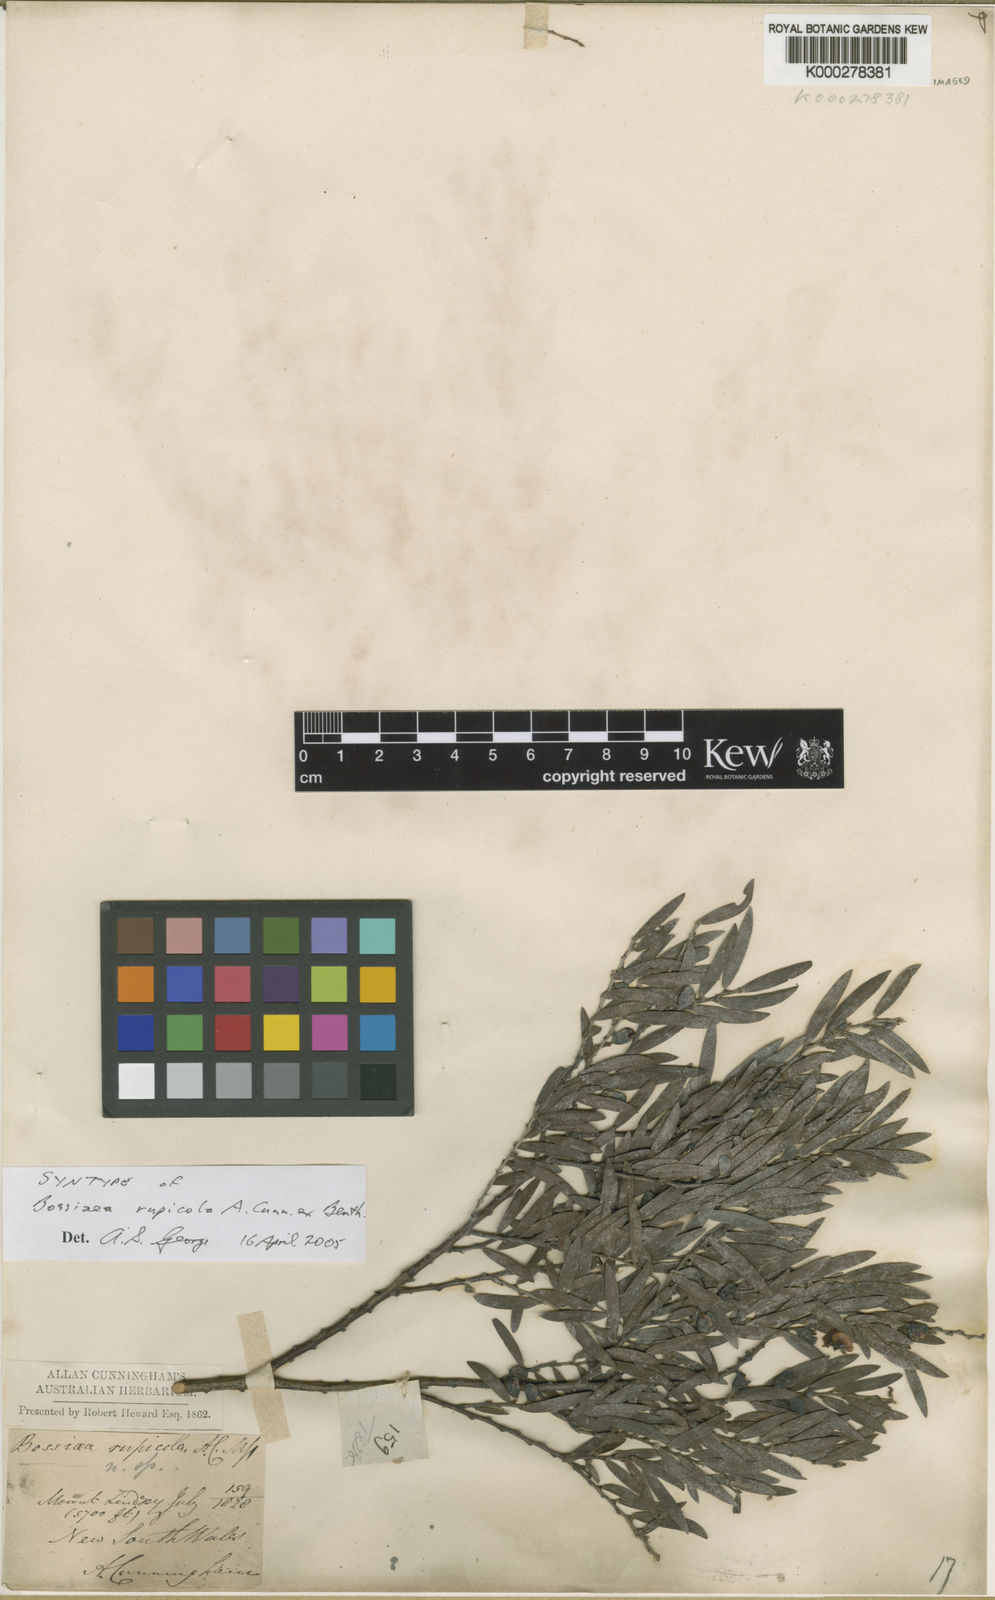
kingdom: Plantae
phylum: Tracheophyta
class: Magnoliopsida
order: Fabales
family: Fabaceae
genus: Bossiaea
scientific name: Bossiaea rupicola
